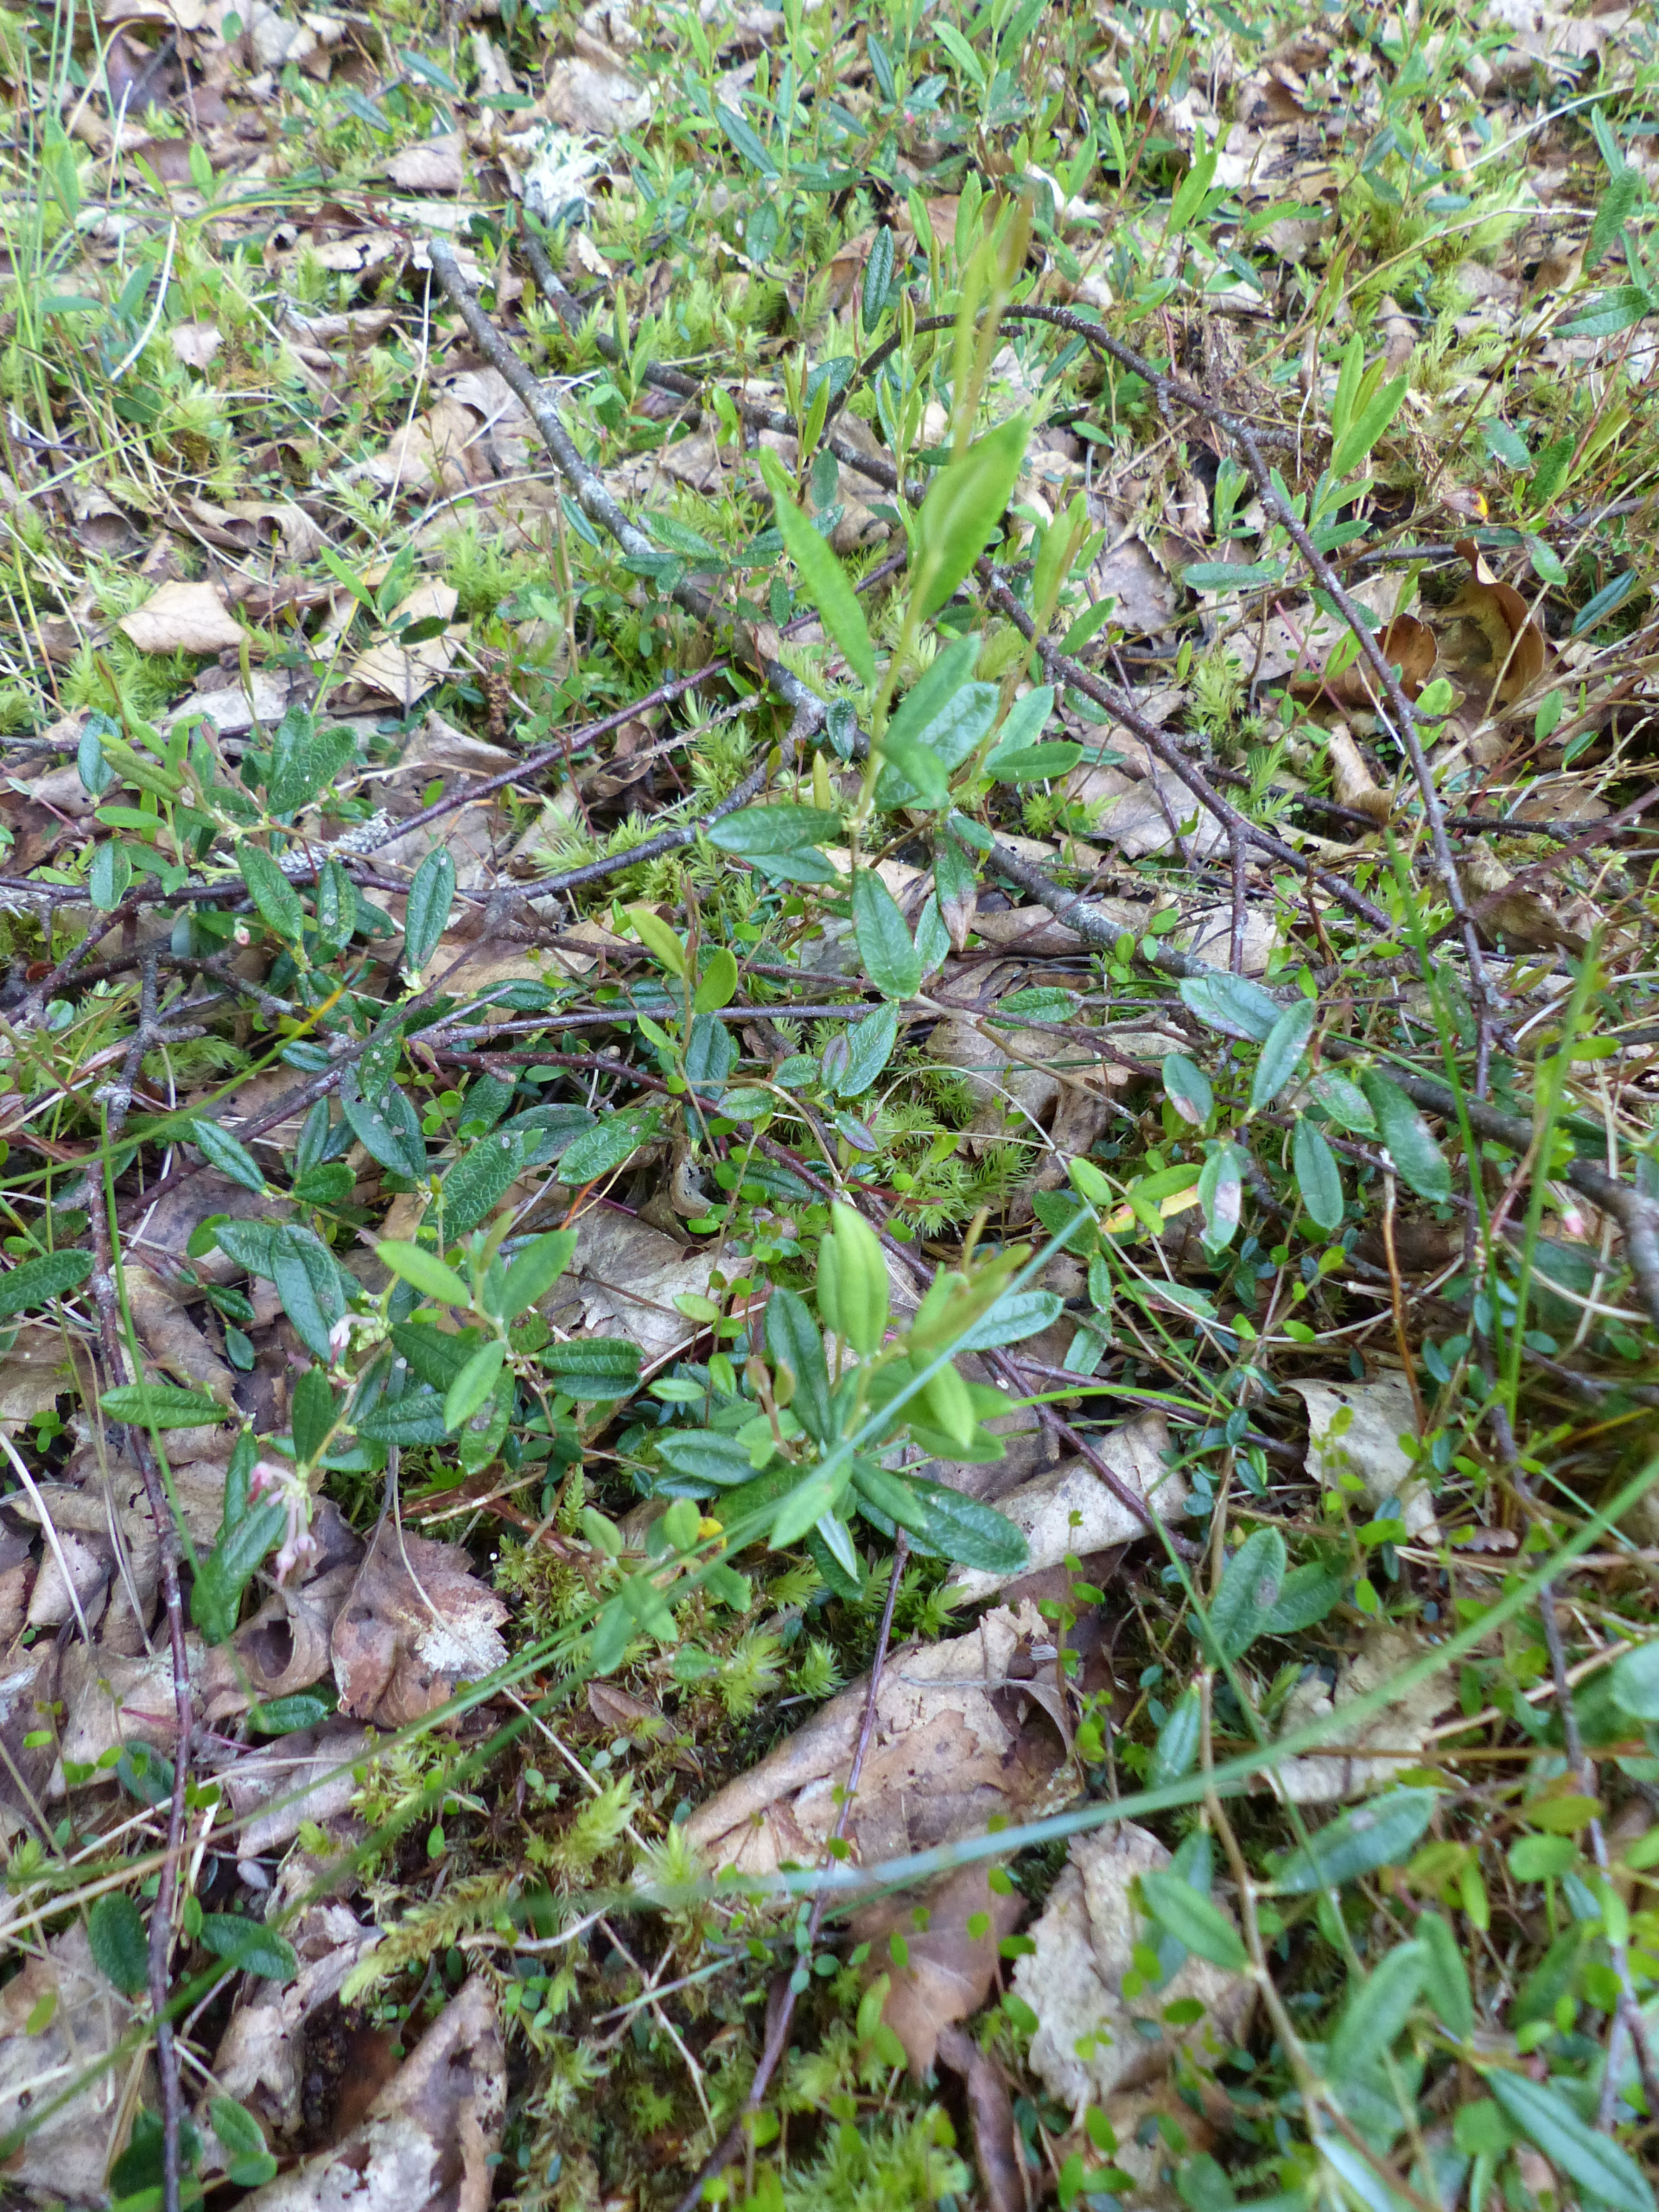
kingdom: Plantae
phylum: Tracheophyta
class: Magnoliopsida
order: Ericales
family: Ericaceae
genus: Andromeda
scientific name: Andromeda polifolia
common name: Rosmarinlyng
